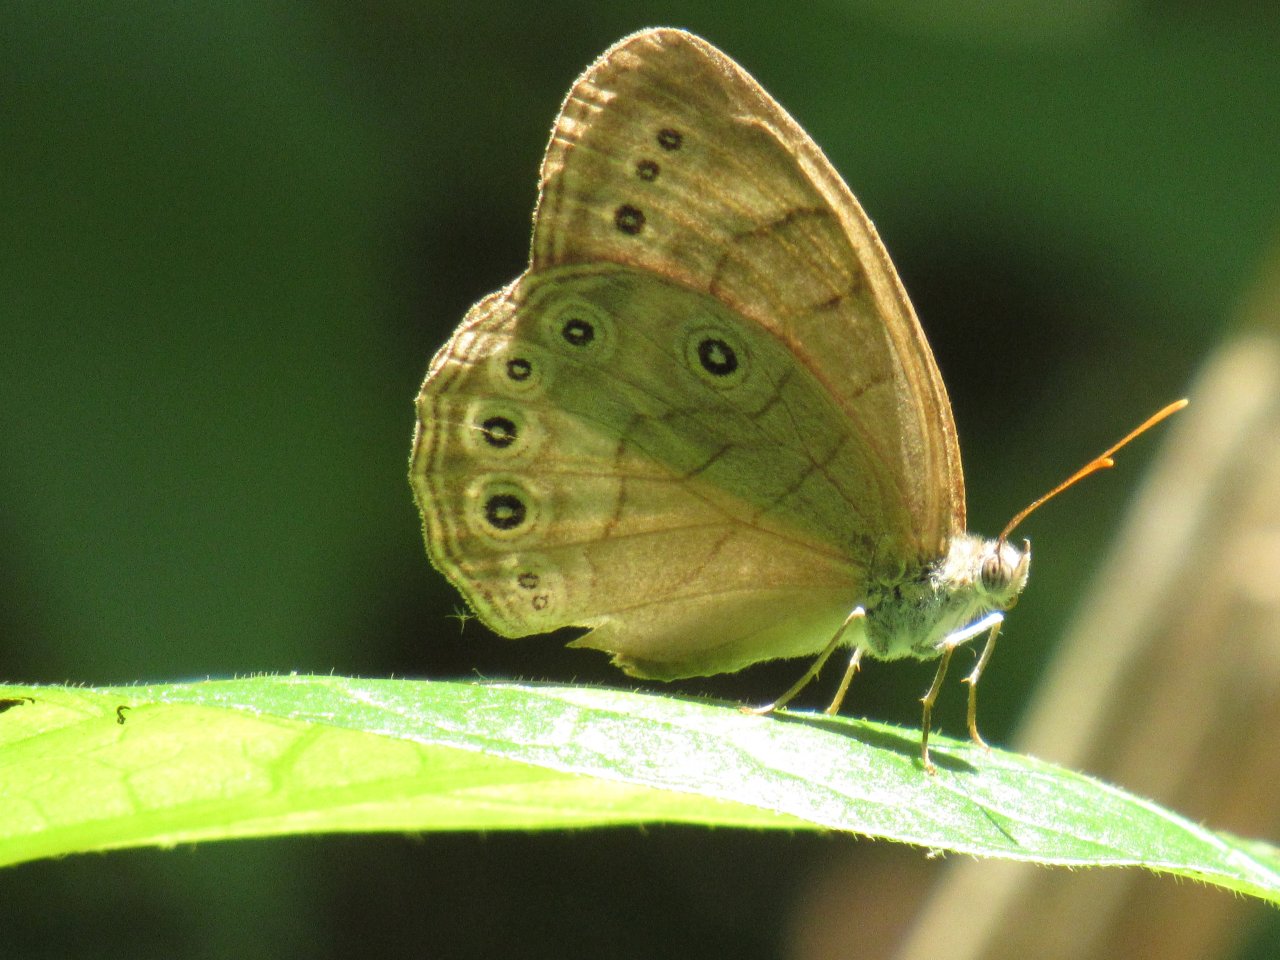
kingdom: Animalia
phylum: Arthropoda
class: Insecta
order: Lepidoptera
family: Nymphalidae
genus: Lethe
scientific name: Lethe eurydice
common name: Appalachian Eyed Brown
